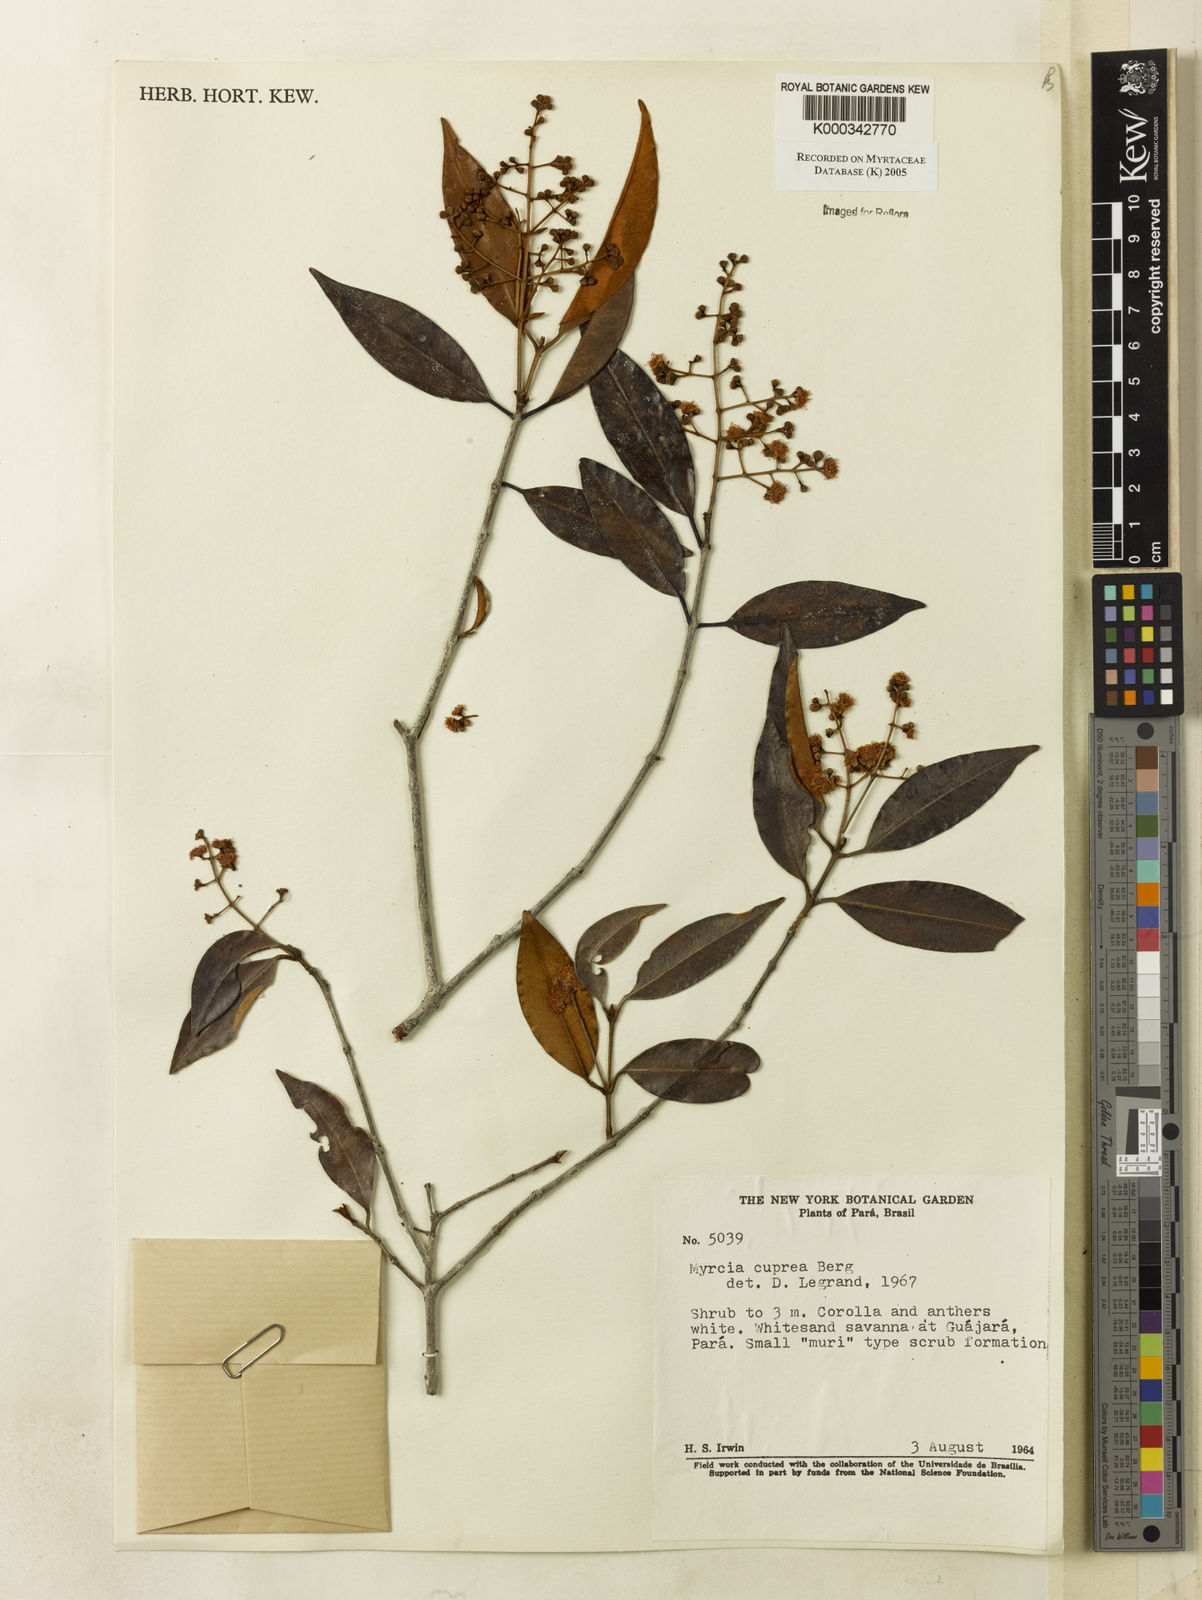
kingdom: Plantae
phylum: Tracheophyta
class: Magnoliopsida
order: Myrtales
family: Myrtaceae
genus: Myrcia
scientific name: Myrcia cuprea
